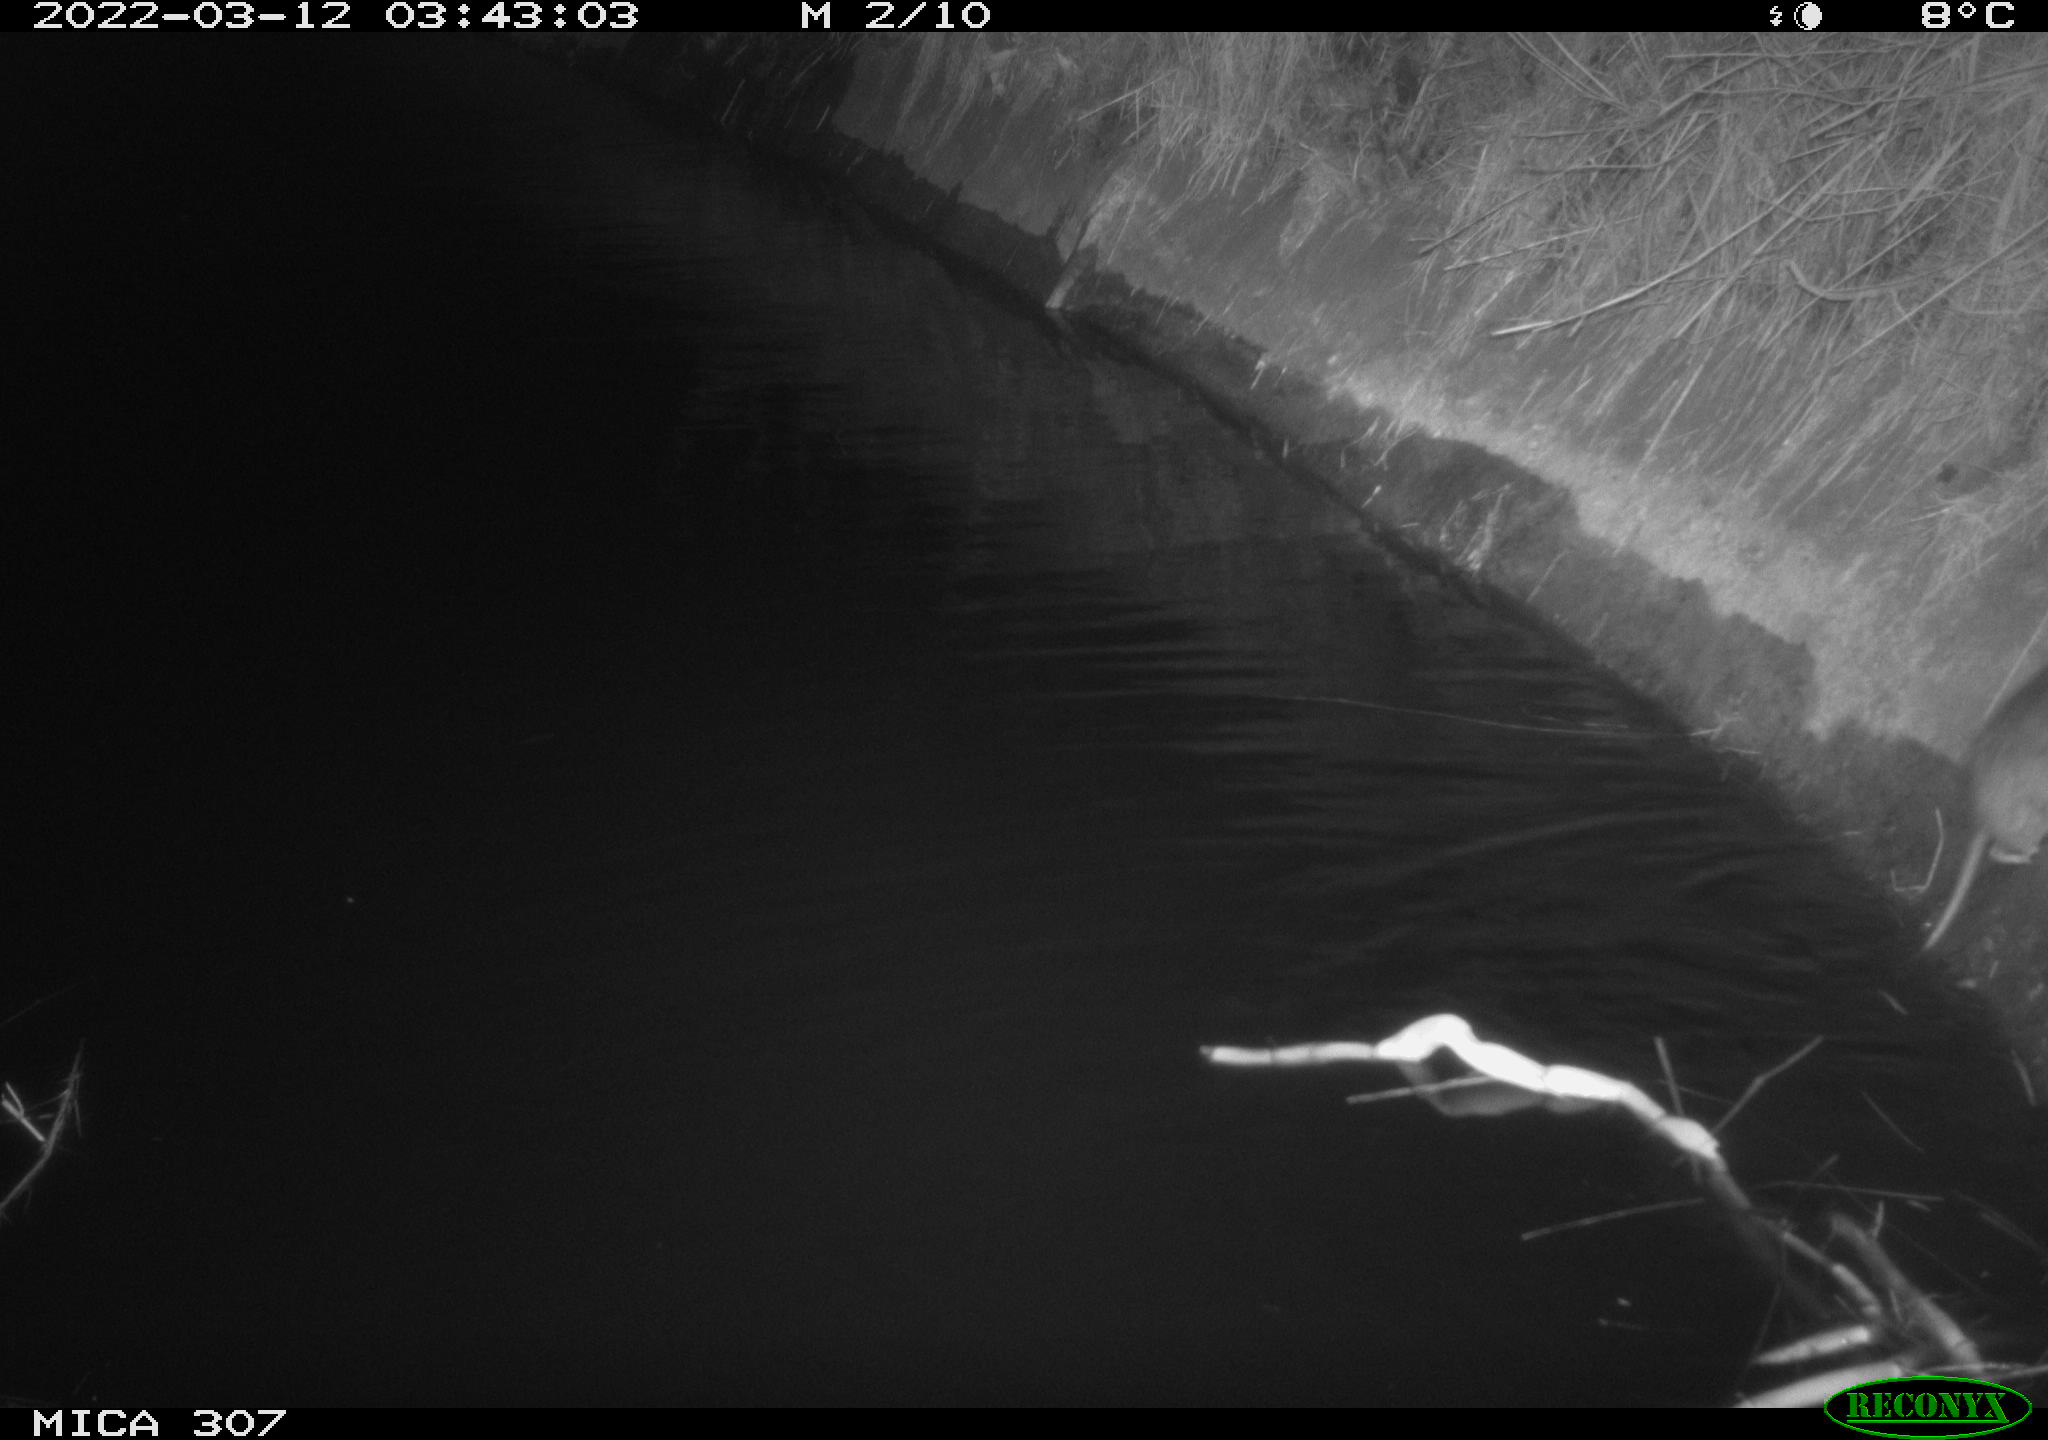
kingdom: Animalia
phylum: Chordata
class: Mammalia
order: Rodentia
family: Muridae
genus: Rattus
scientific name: Rattus norvegicus
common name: Brown rat
